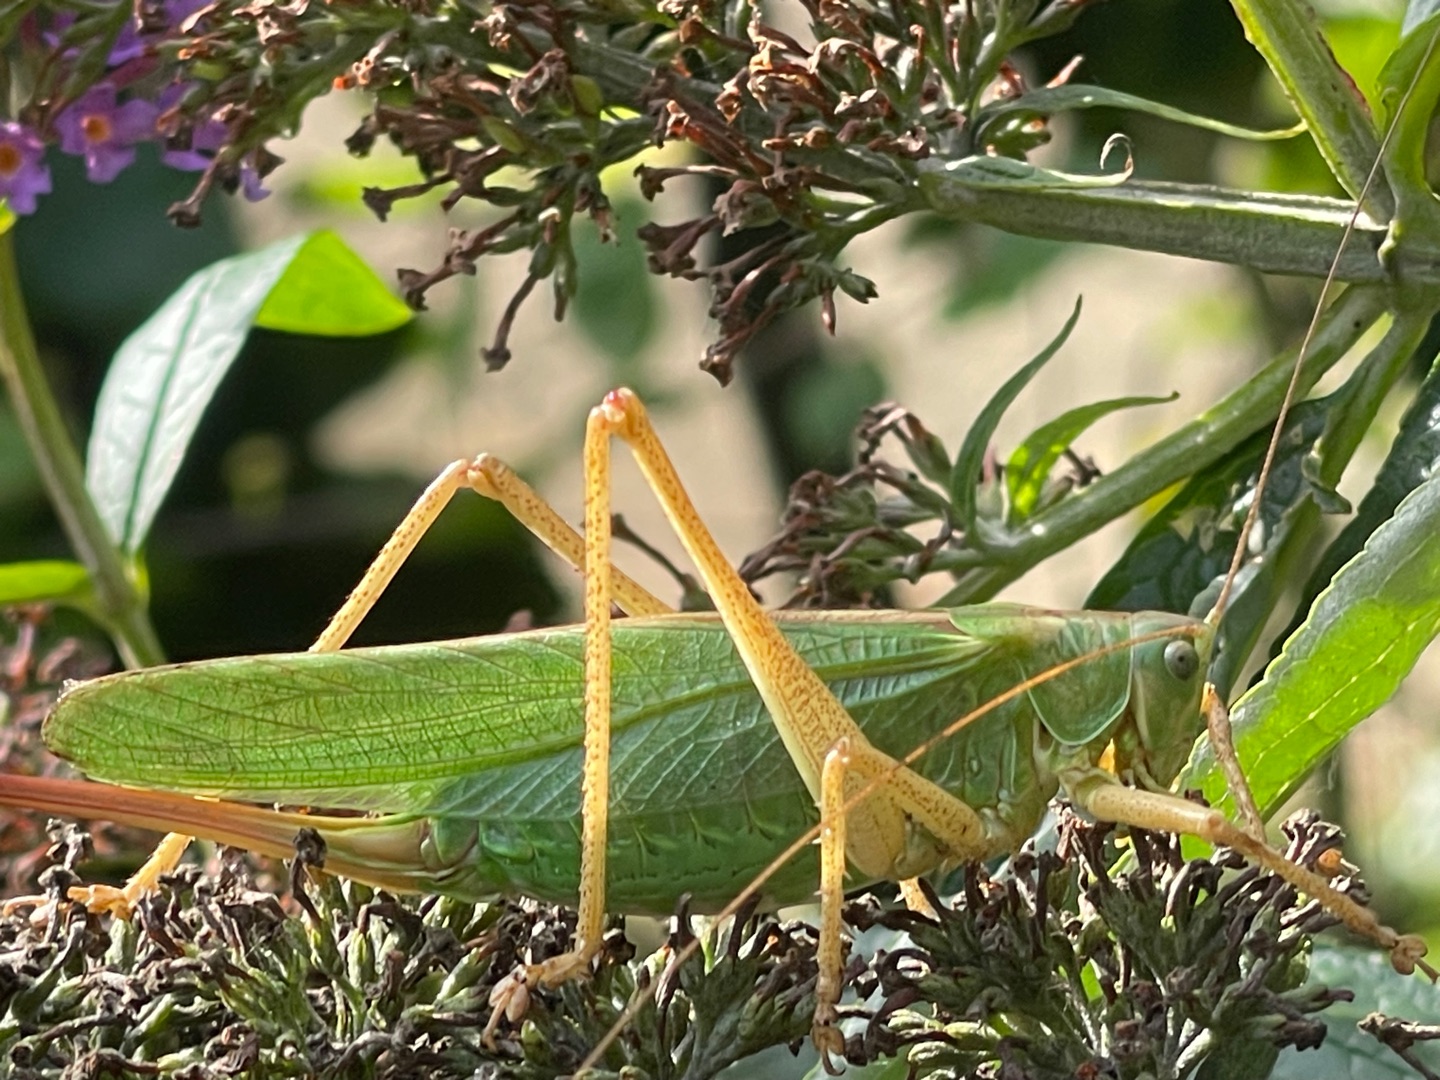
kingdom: Animalia
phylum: Arthropoda
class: Insecta
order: Orthoptera
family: Tettigoniidae
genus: Tettigonia
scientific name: Tettigonia viridissima
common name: Stor grøn løvgræshoppe
